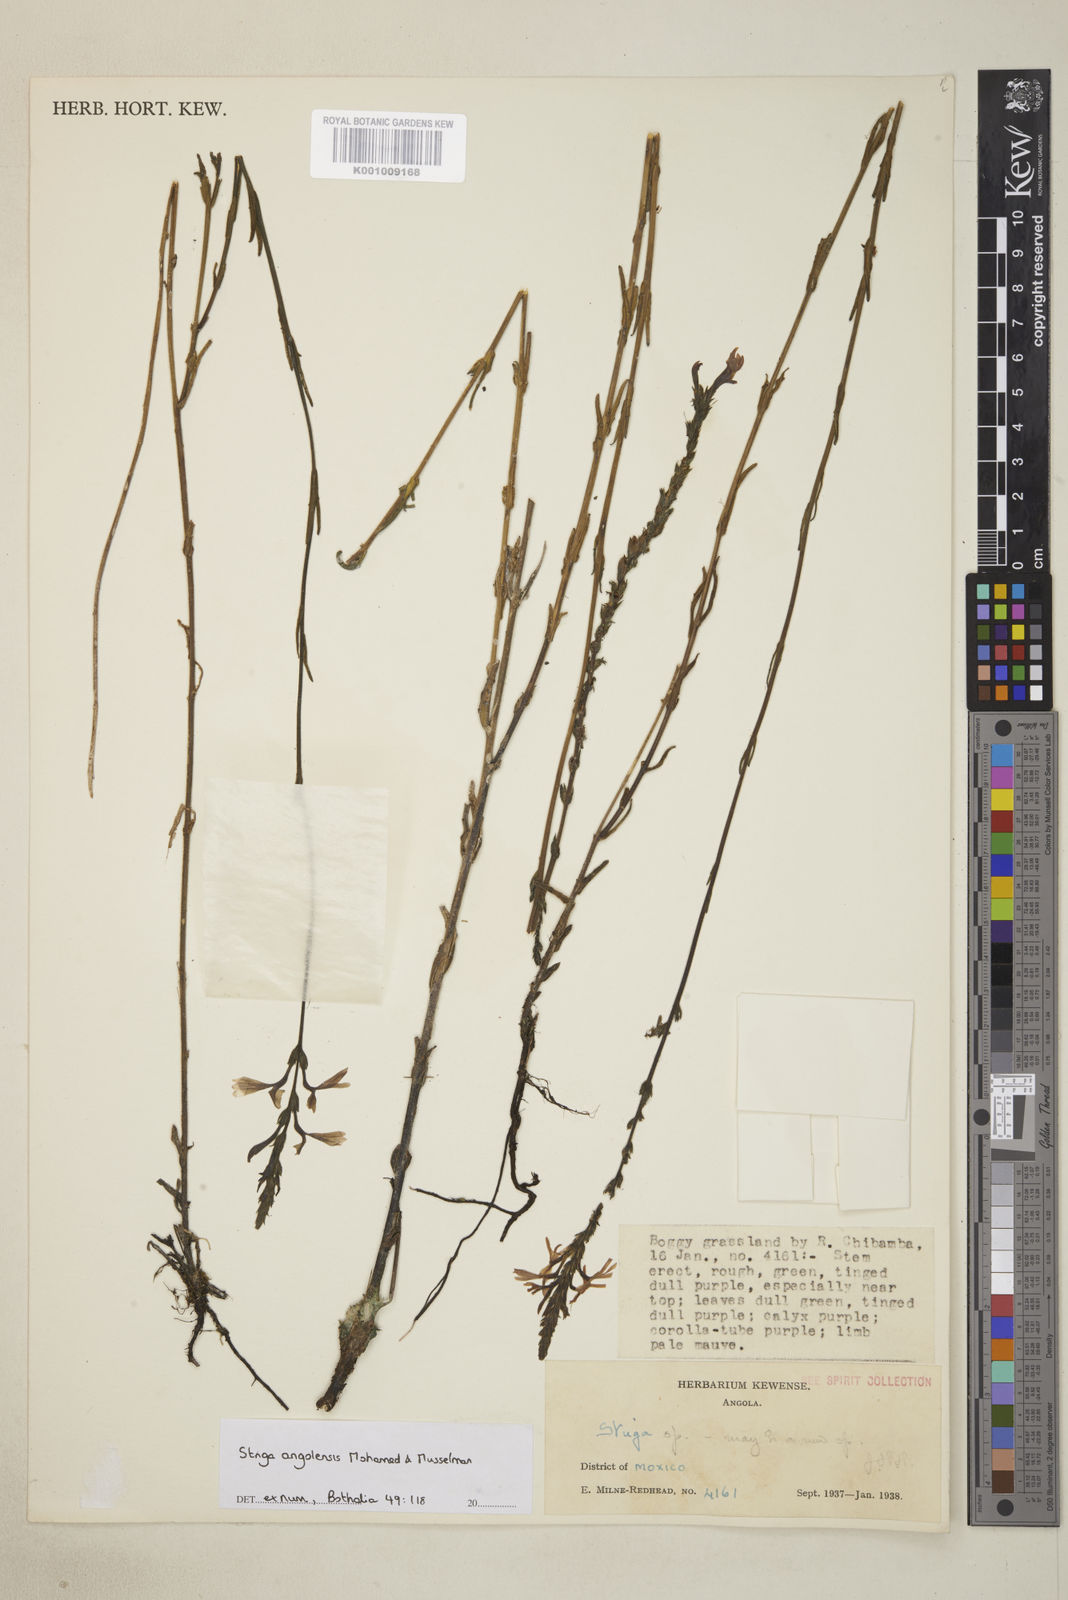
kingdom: Plantae
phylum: Tracheophyta
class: Magnoliopsida
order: Lamiales
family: Orobanchaceae
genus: Striga
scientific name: Striga angolensis
